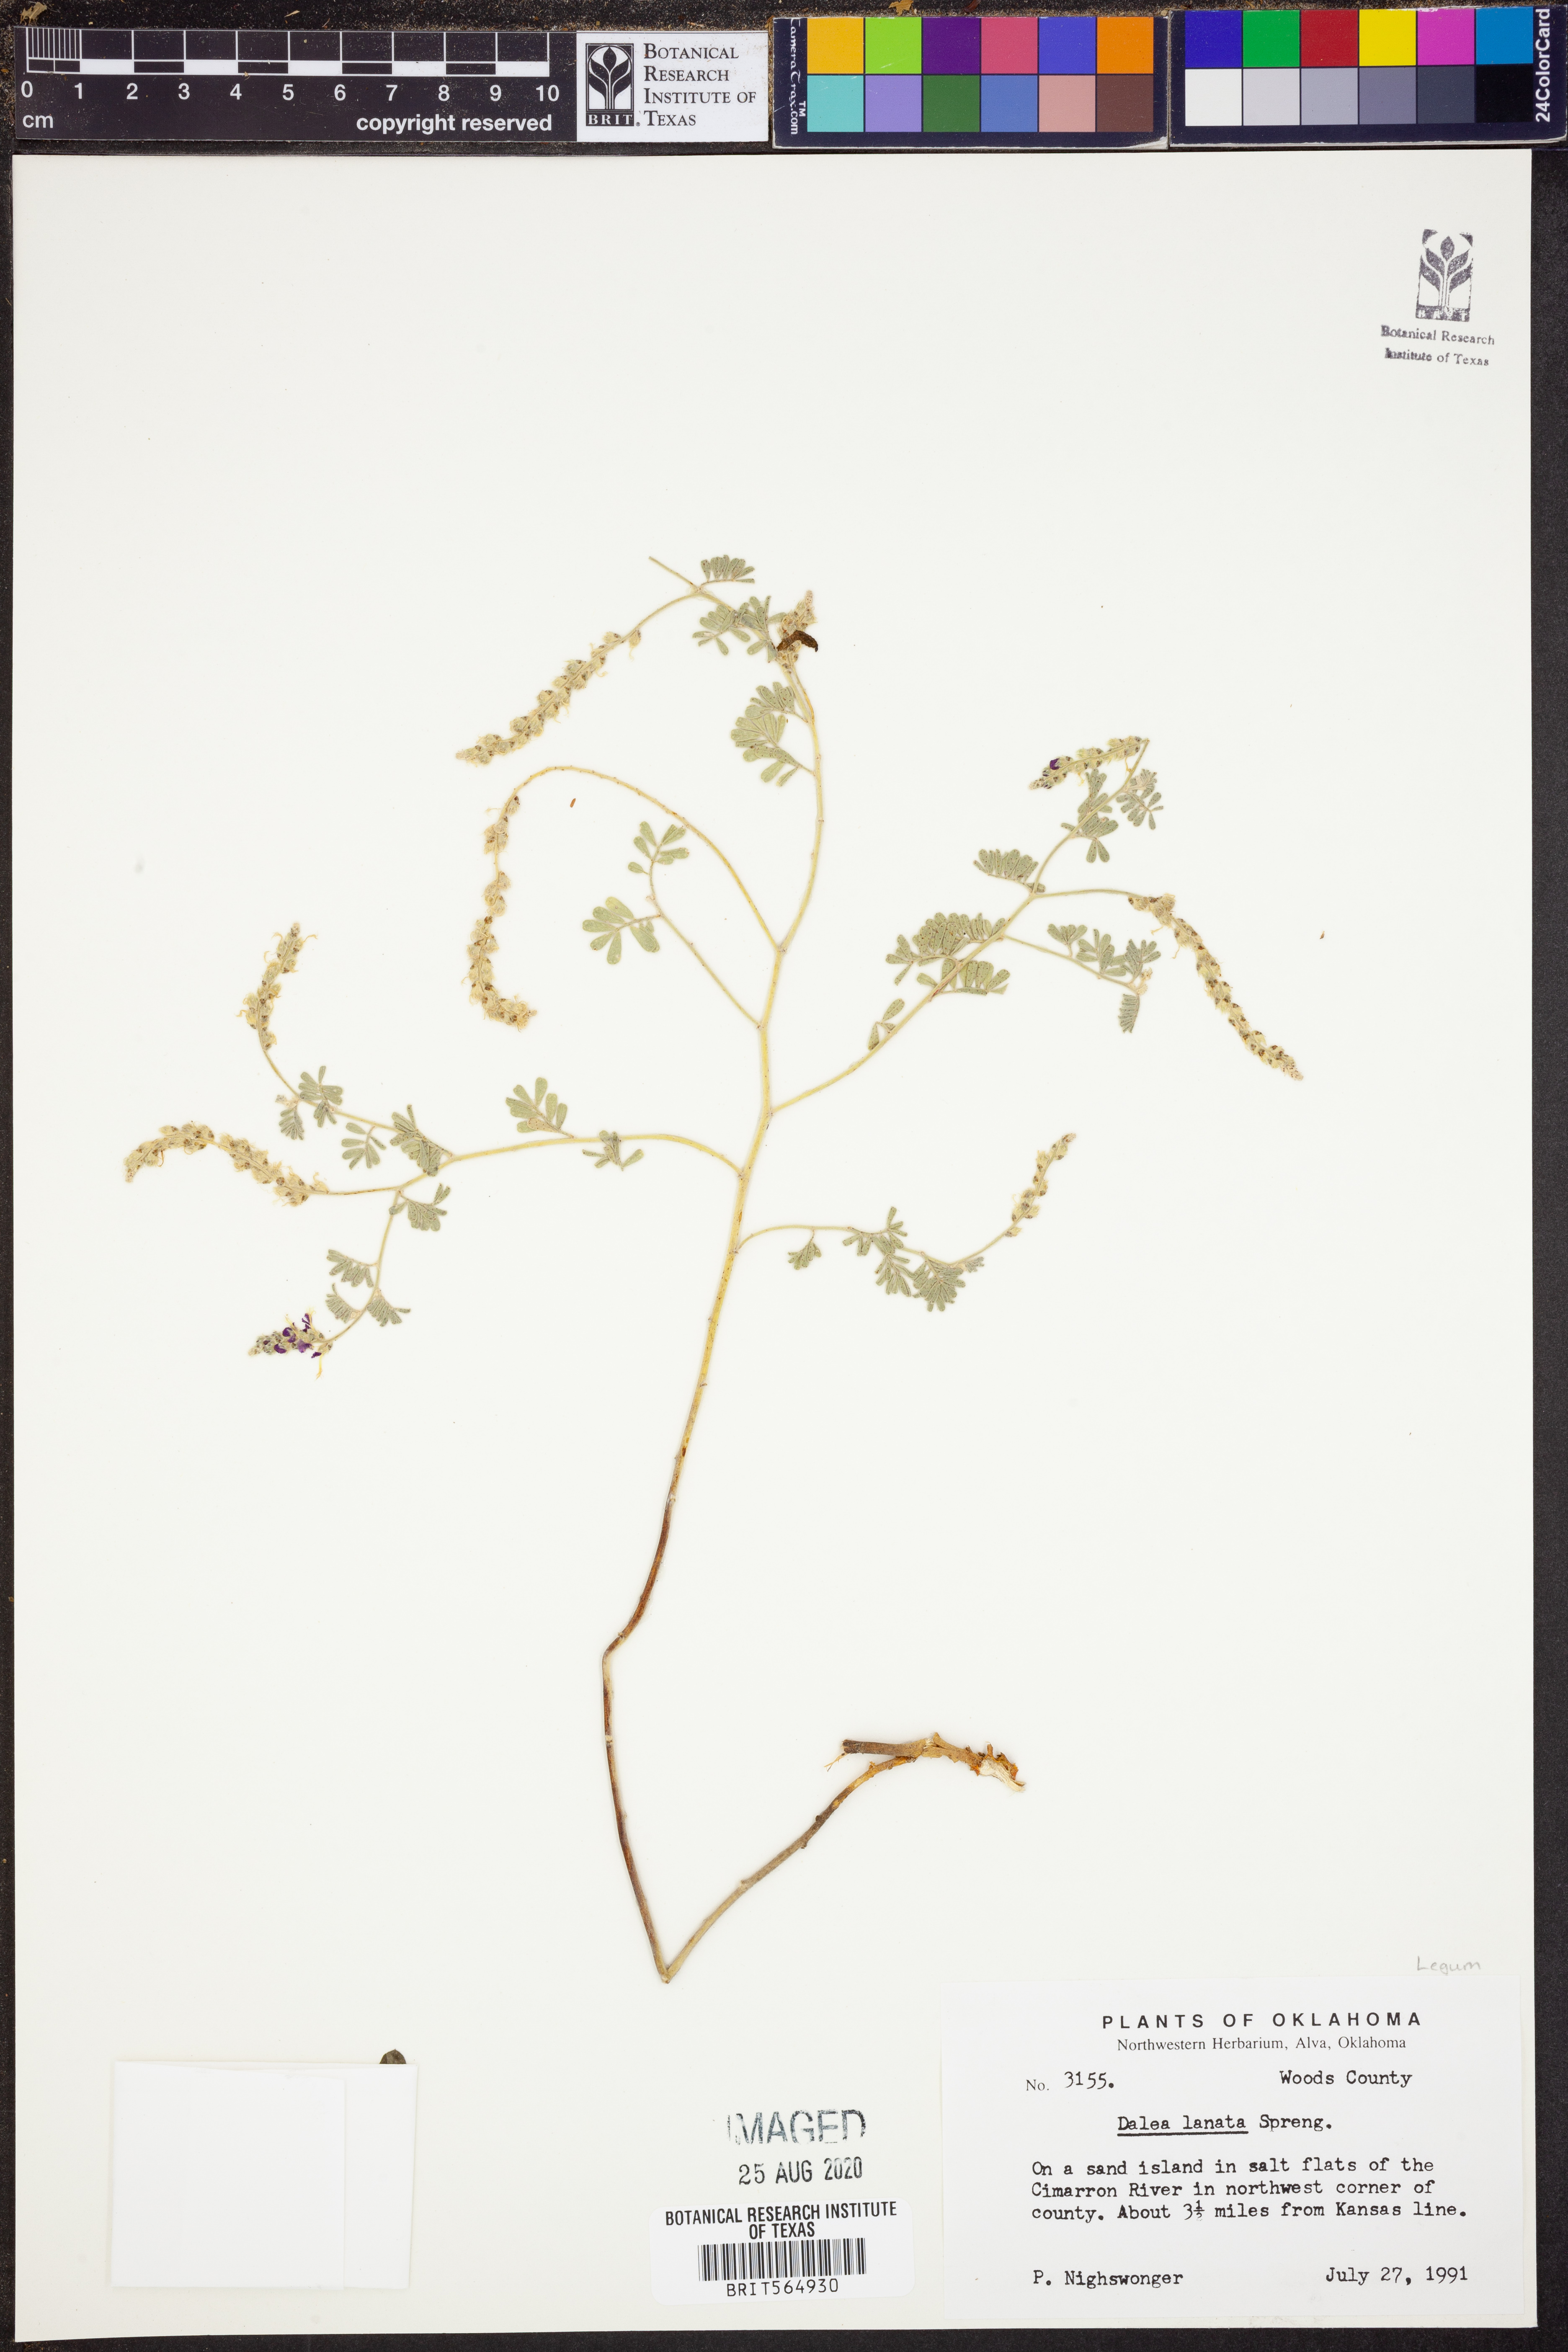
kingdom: Plantae
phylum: Tracheophyta
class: Magnoliopsida
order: Fabales
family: Fabaceae
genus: Dalea
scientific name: Dalea lanata
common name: Woolly dalea
